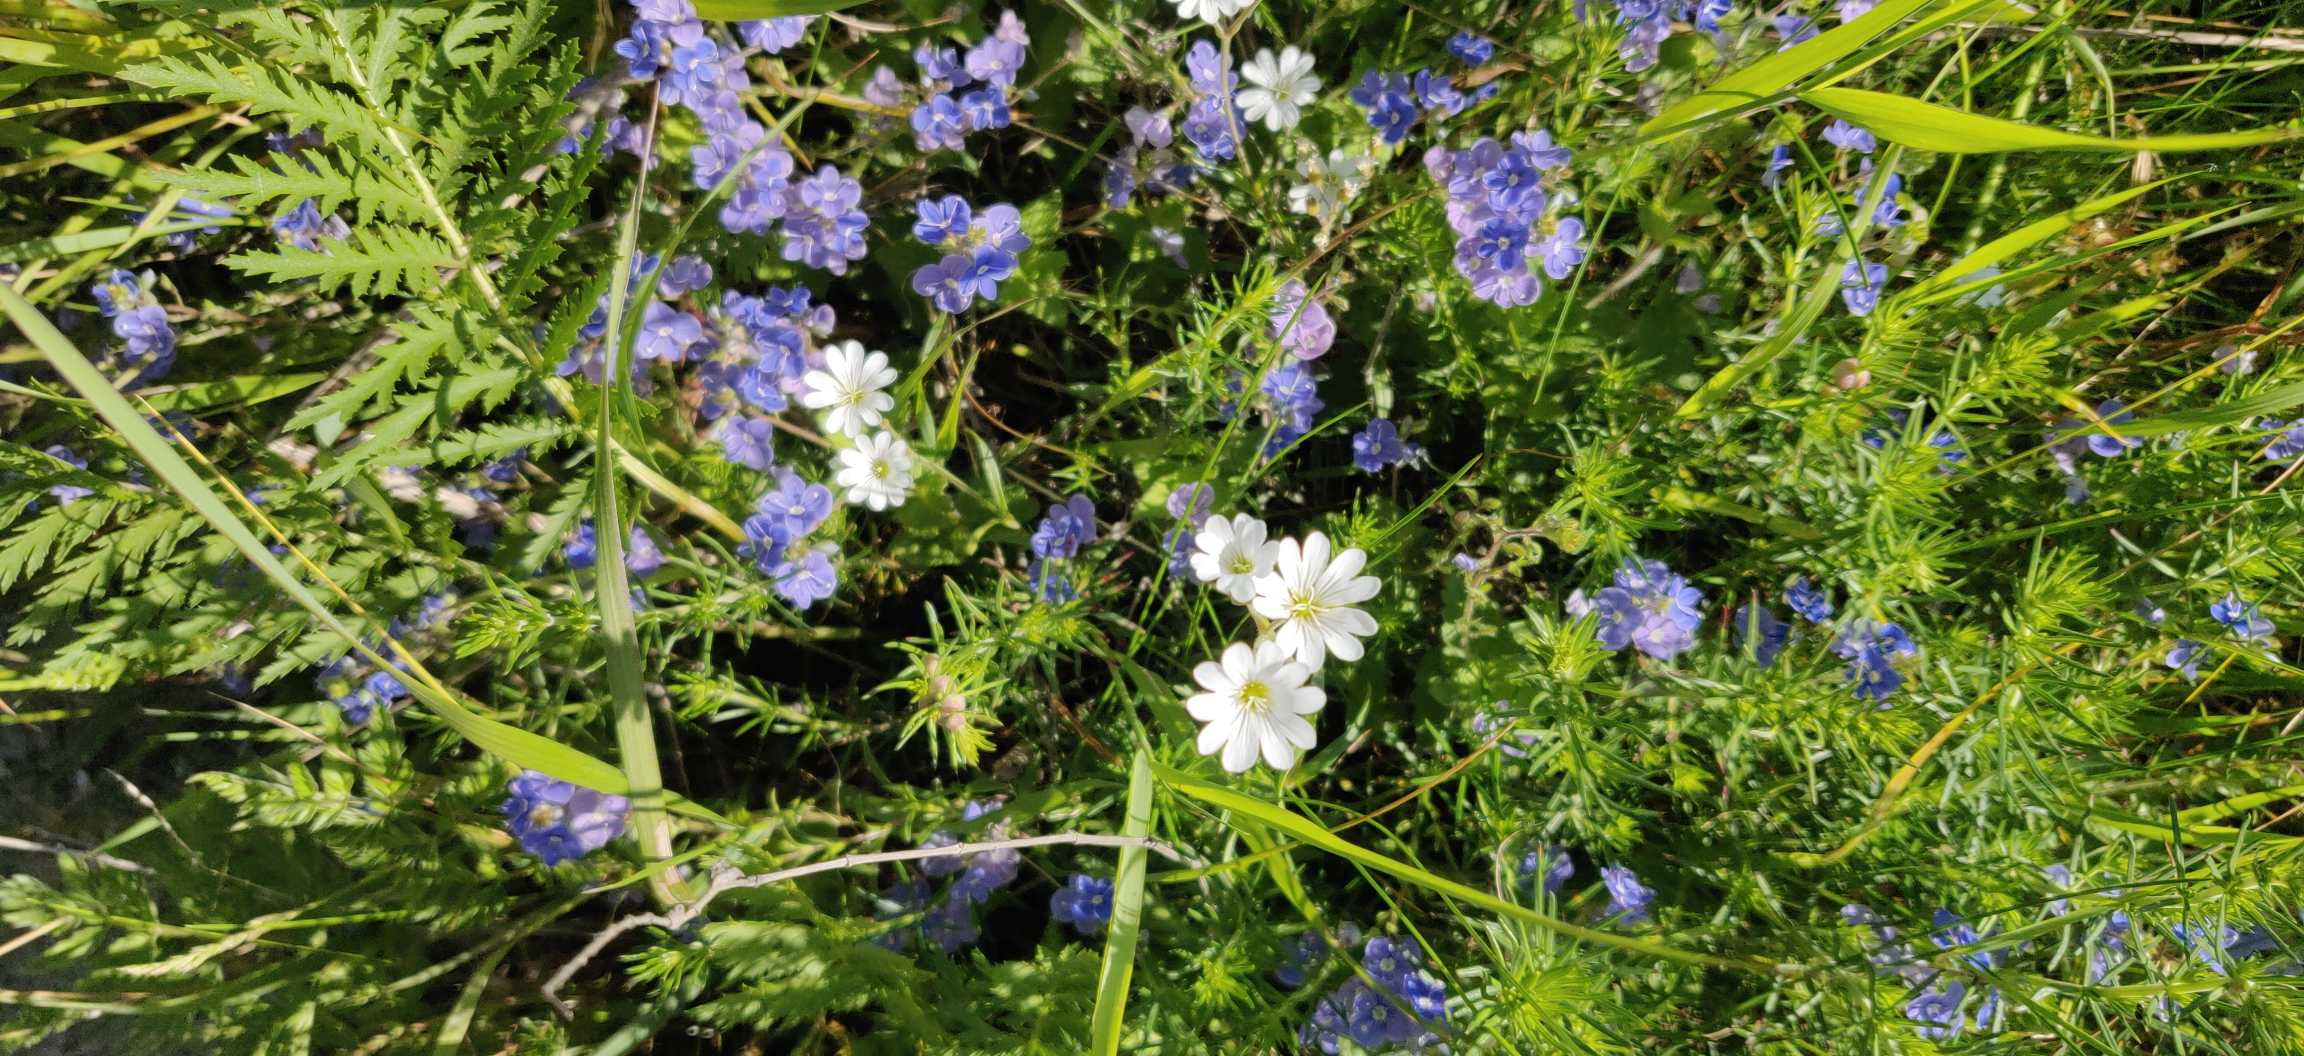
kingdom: Plantae
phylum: Tracheophyta
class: Magnoliopsida
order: Caryophyllales
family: Caryophyllaceae
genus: Cerastium
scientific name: Cerastium arvense
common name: Storblomstret hønsetarm
